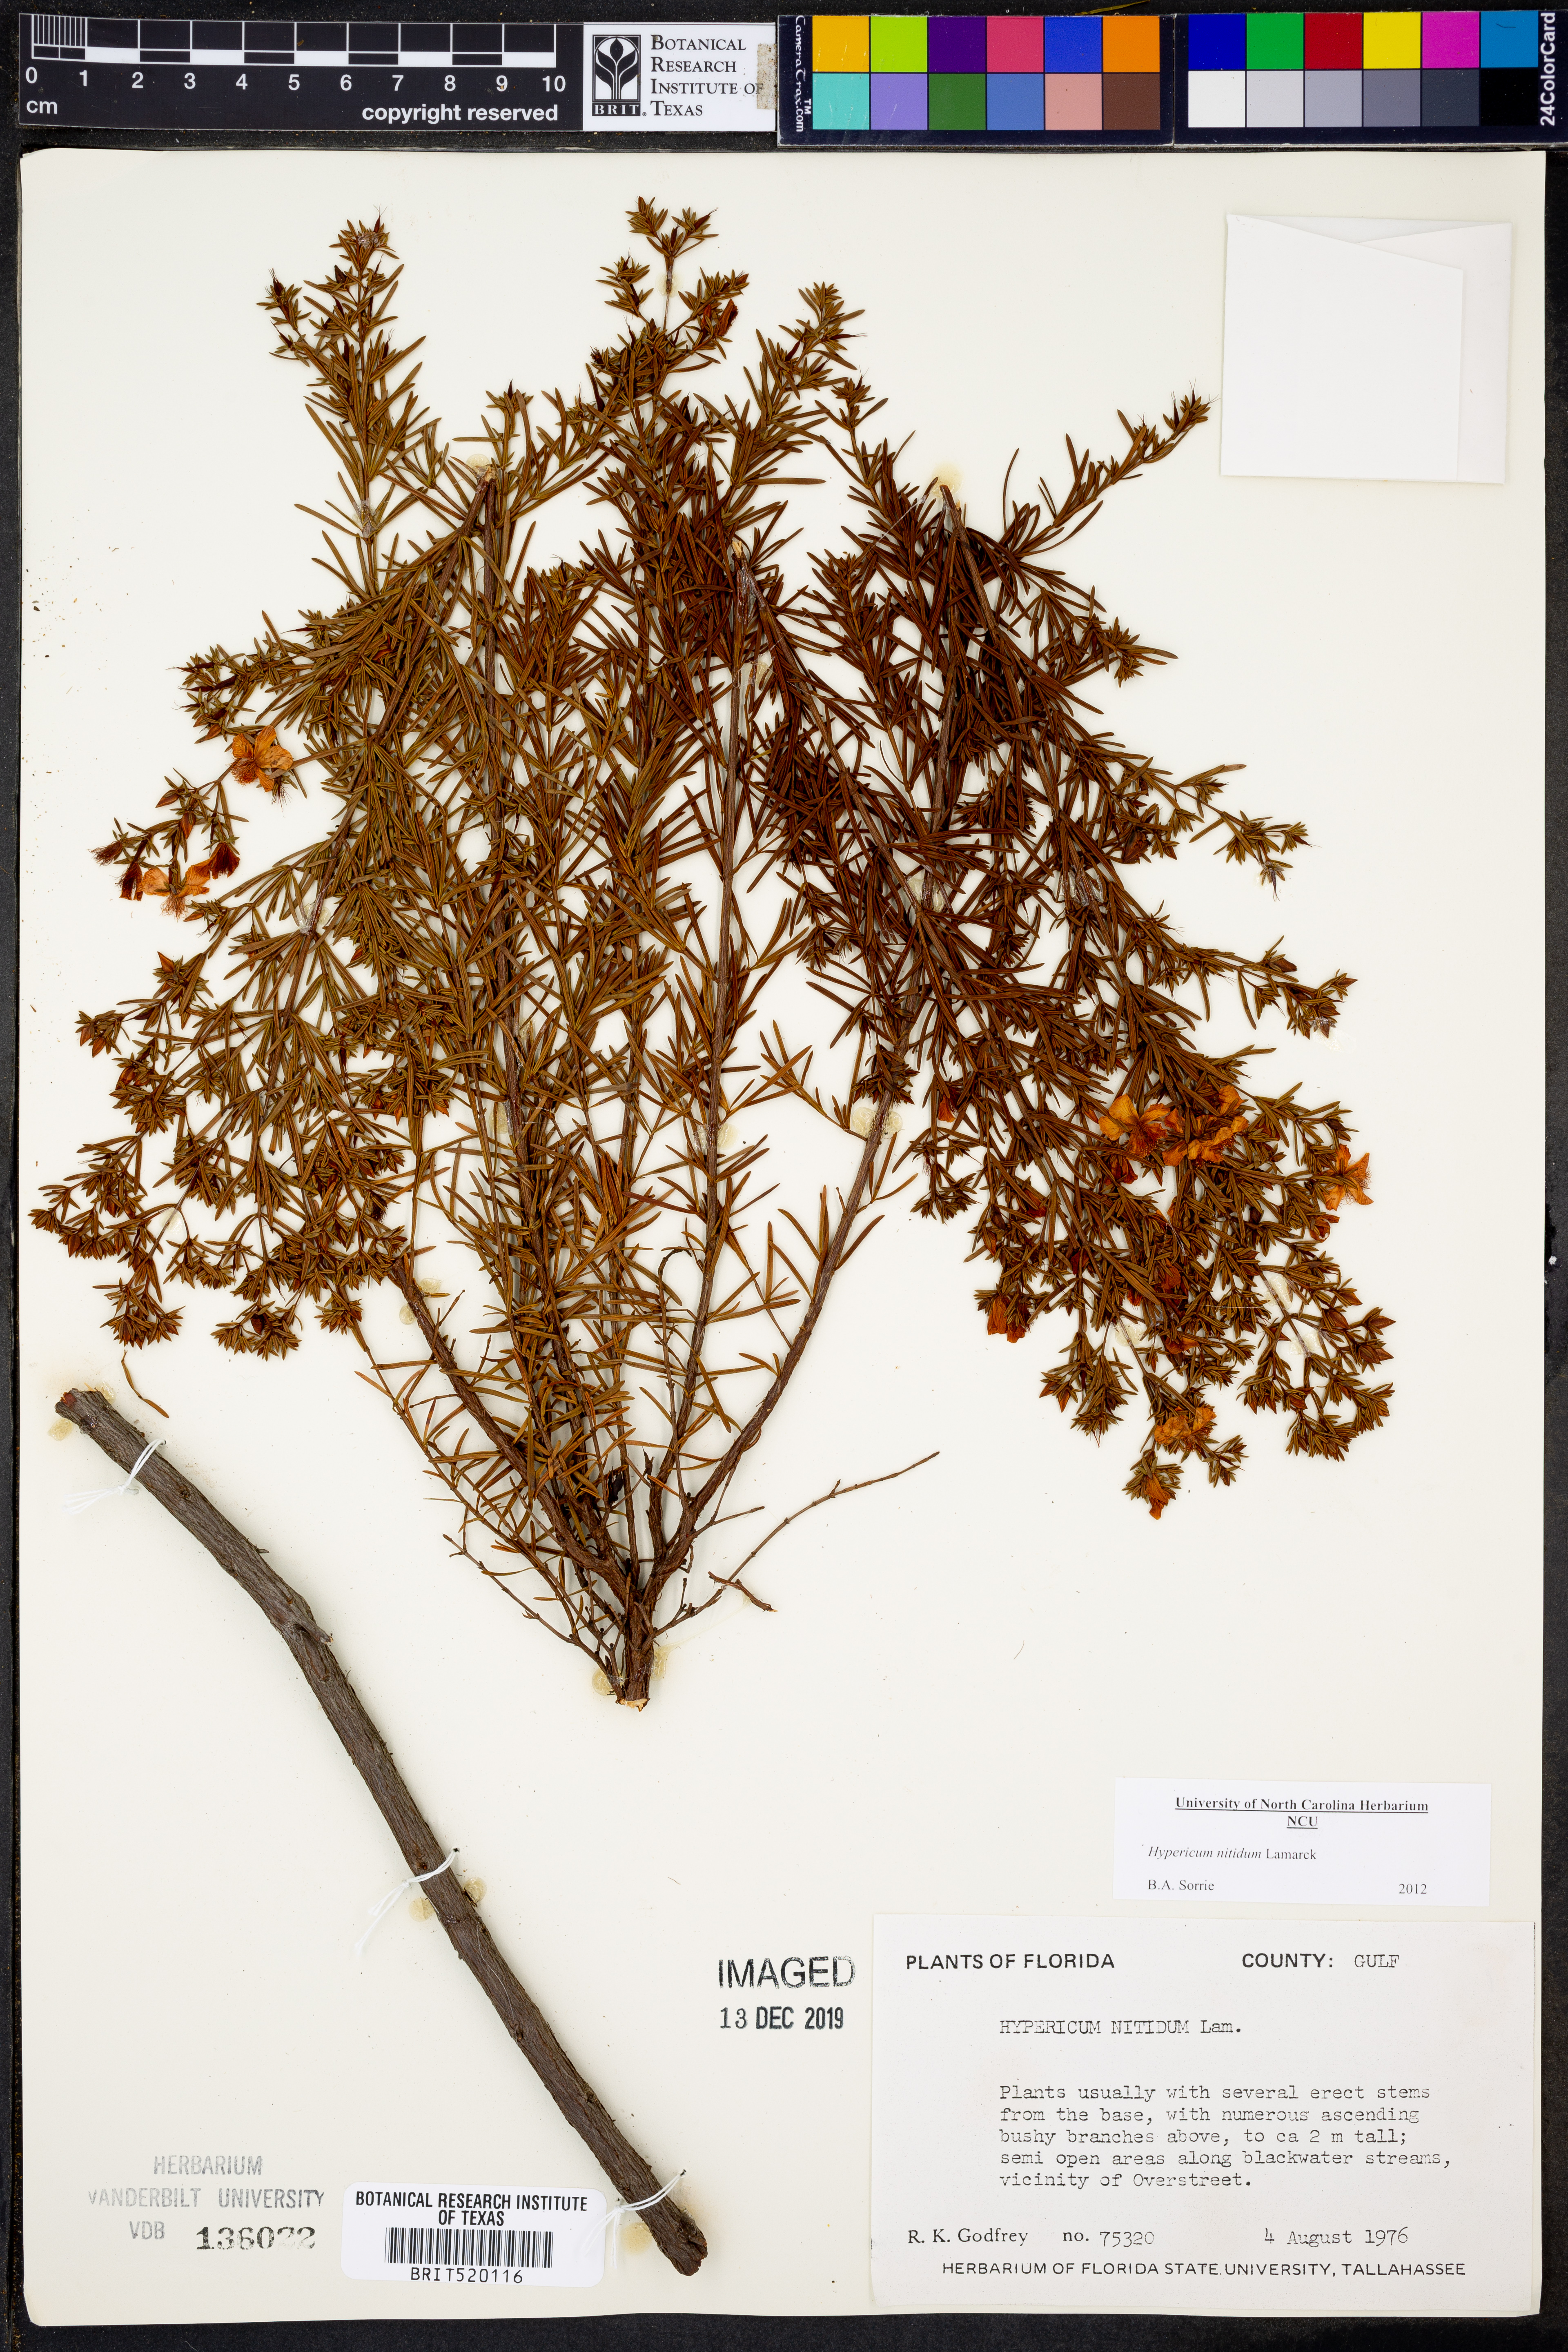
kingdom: Plantae
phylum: Tracheophyta
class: Magnoliopsida
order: Malpighiales
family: Hypericaceae
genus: Hypericum
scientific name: Hypericum nitidum
